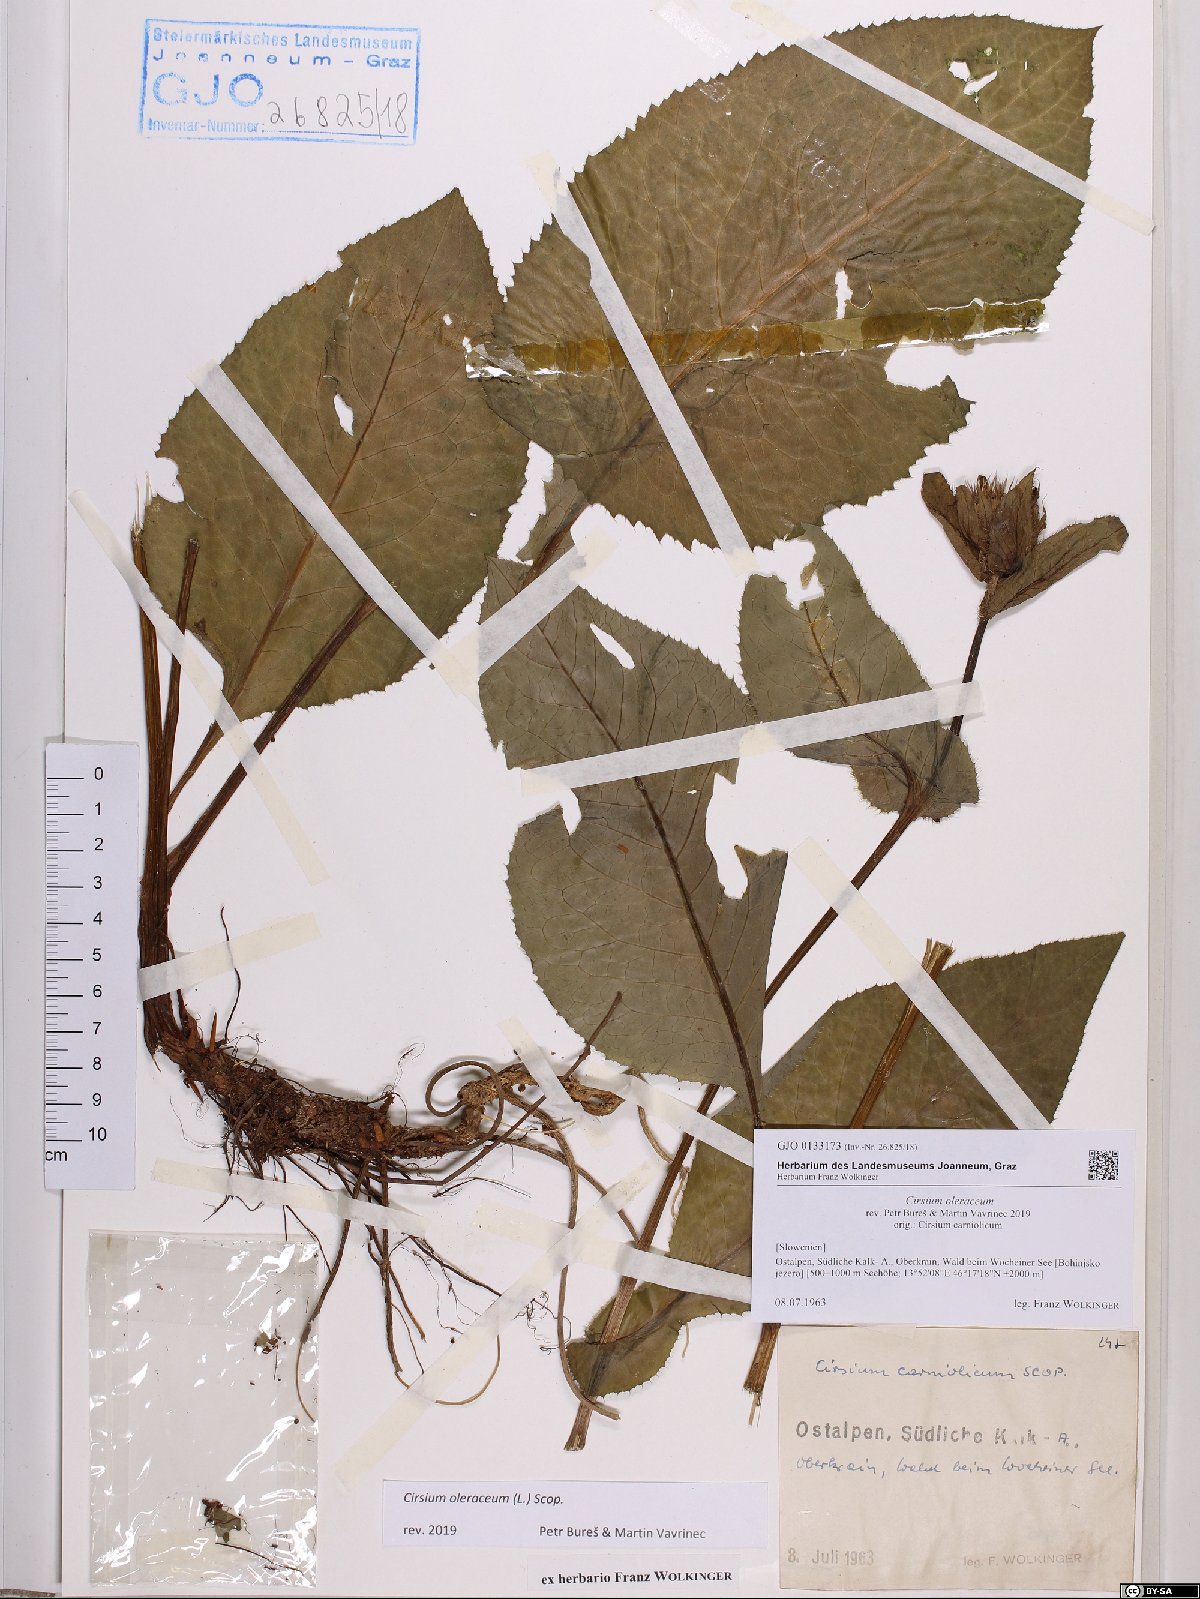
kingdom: Plantae
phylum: Tracheophyta
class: Magnoliopsida
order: Asterales
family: Asteraceae
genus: Cirsium
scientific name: Cirsium oleraceum
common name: Cabbage thistle
